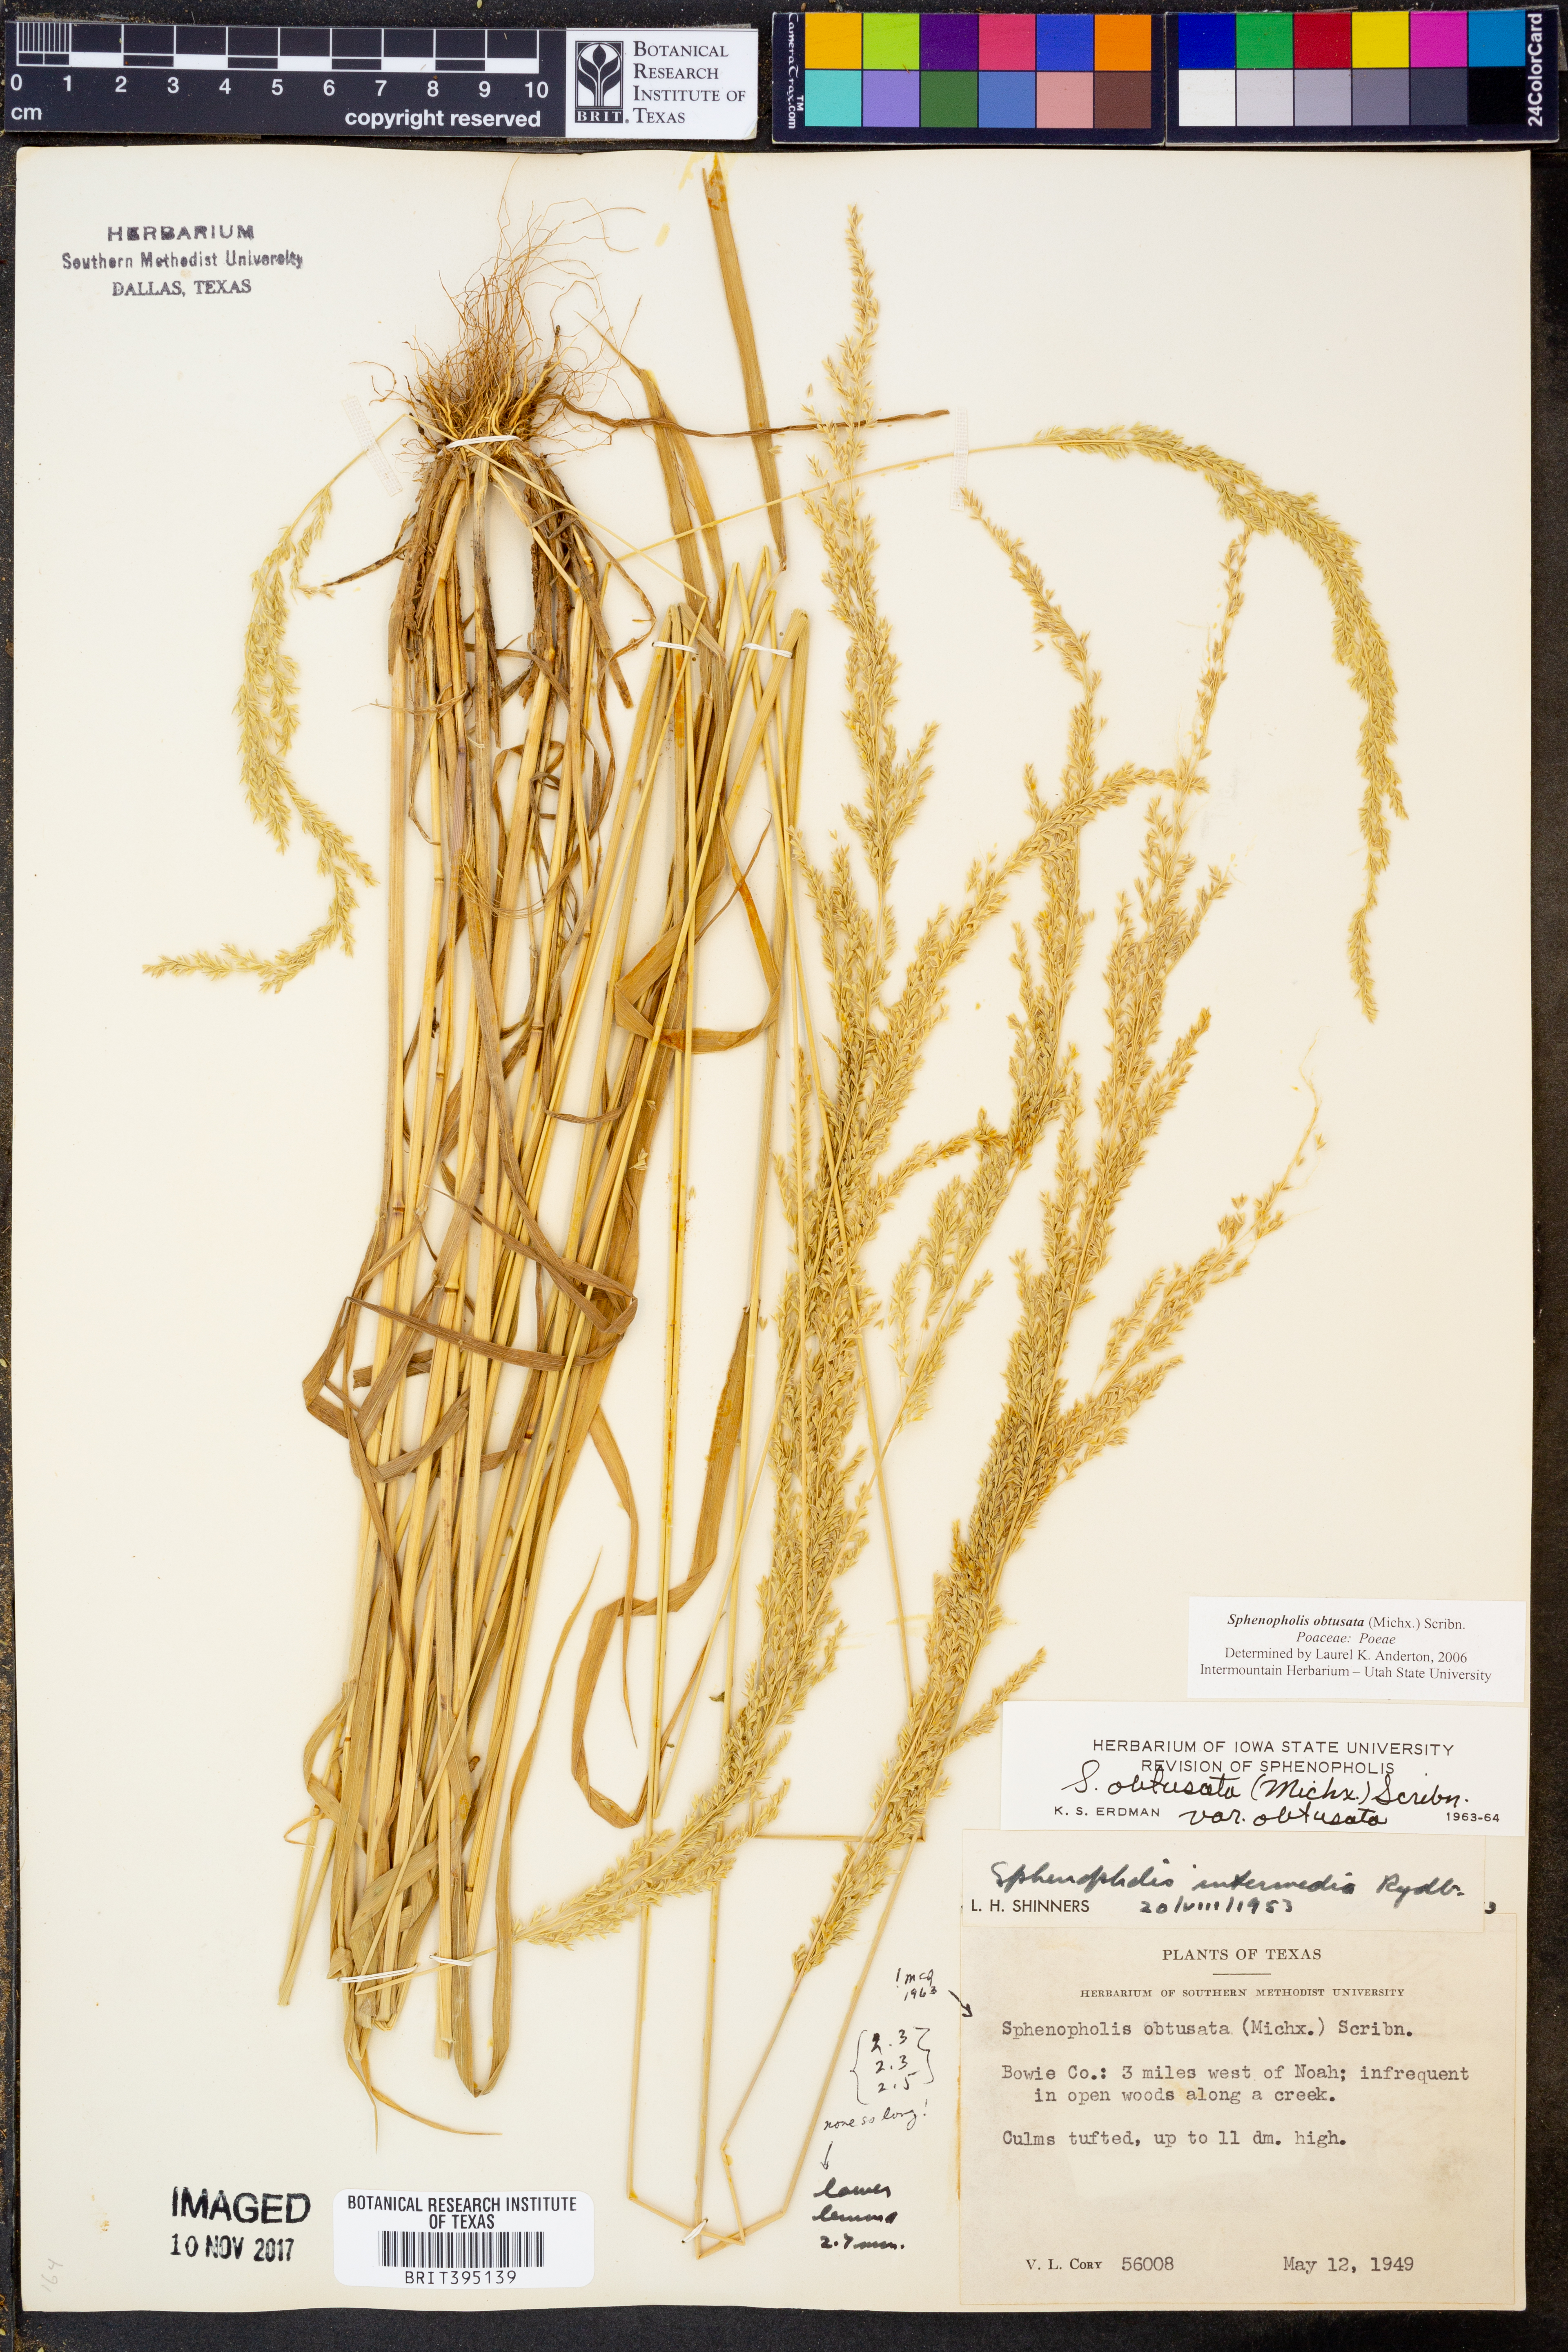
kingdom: Plantae
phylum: Tracheophyta
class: Liliopsida
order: Poales
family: Poaceae
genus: Sphenopholis
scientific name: Sphenopholis obtusata
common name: Prairie grass
